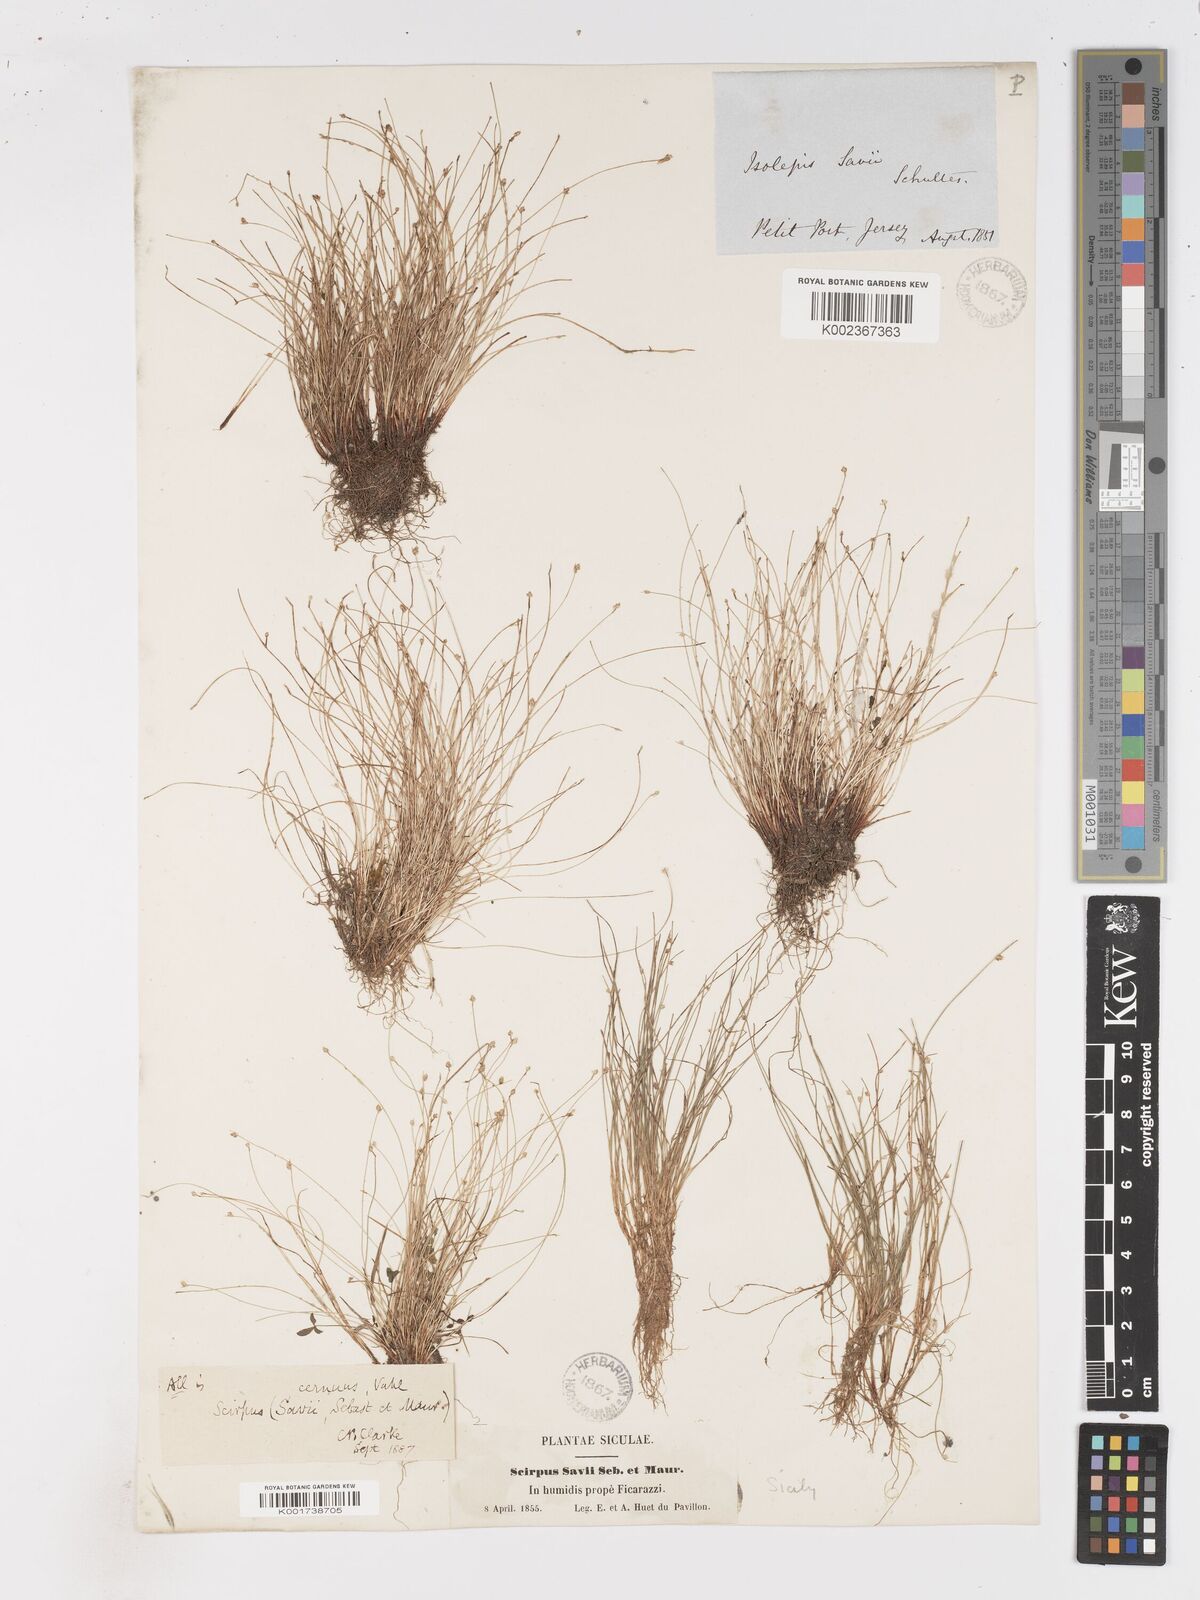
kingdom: Plantae
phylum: Tracheophyta
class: Liliopsida
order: Poales
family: Cyperaceae
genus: Isolepis
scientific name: Isolepis cernua
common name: Slender club-rush
